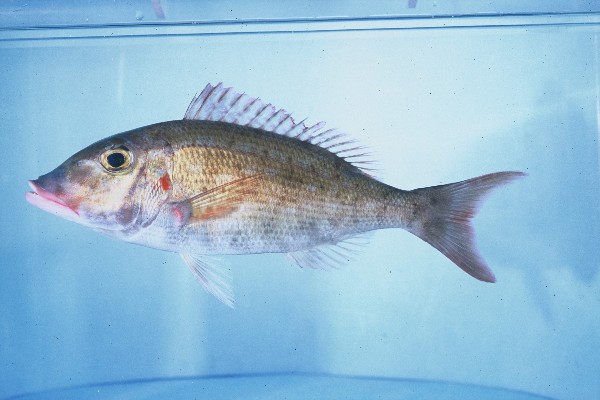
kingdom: Animalia
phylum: Chordata
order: Perciformes
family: Lethrinidae
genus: Lethrinus
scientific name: Lethrinus rubrioperculatus
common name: Spotcheek emperor
